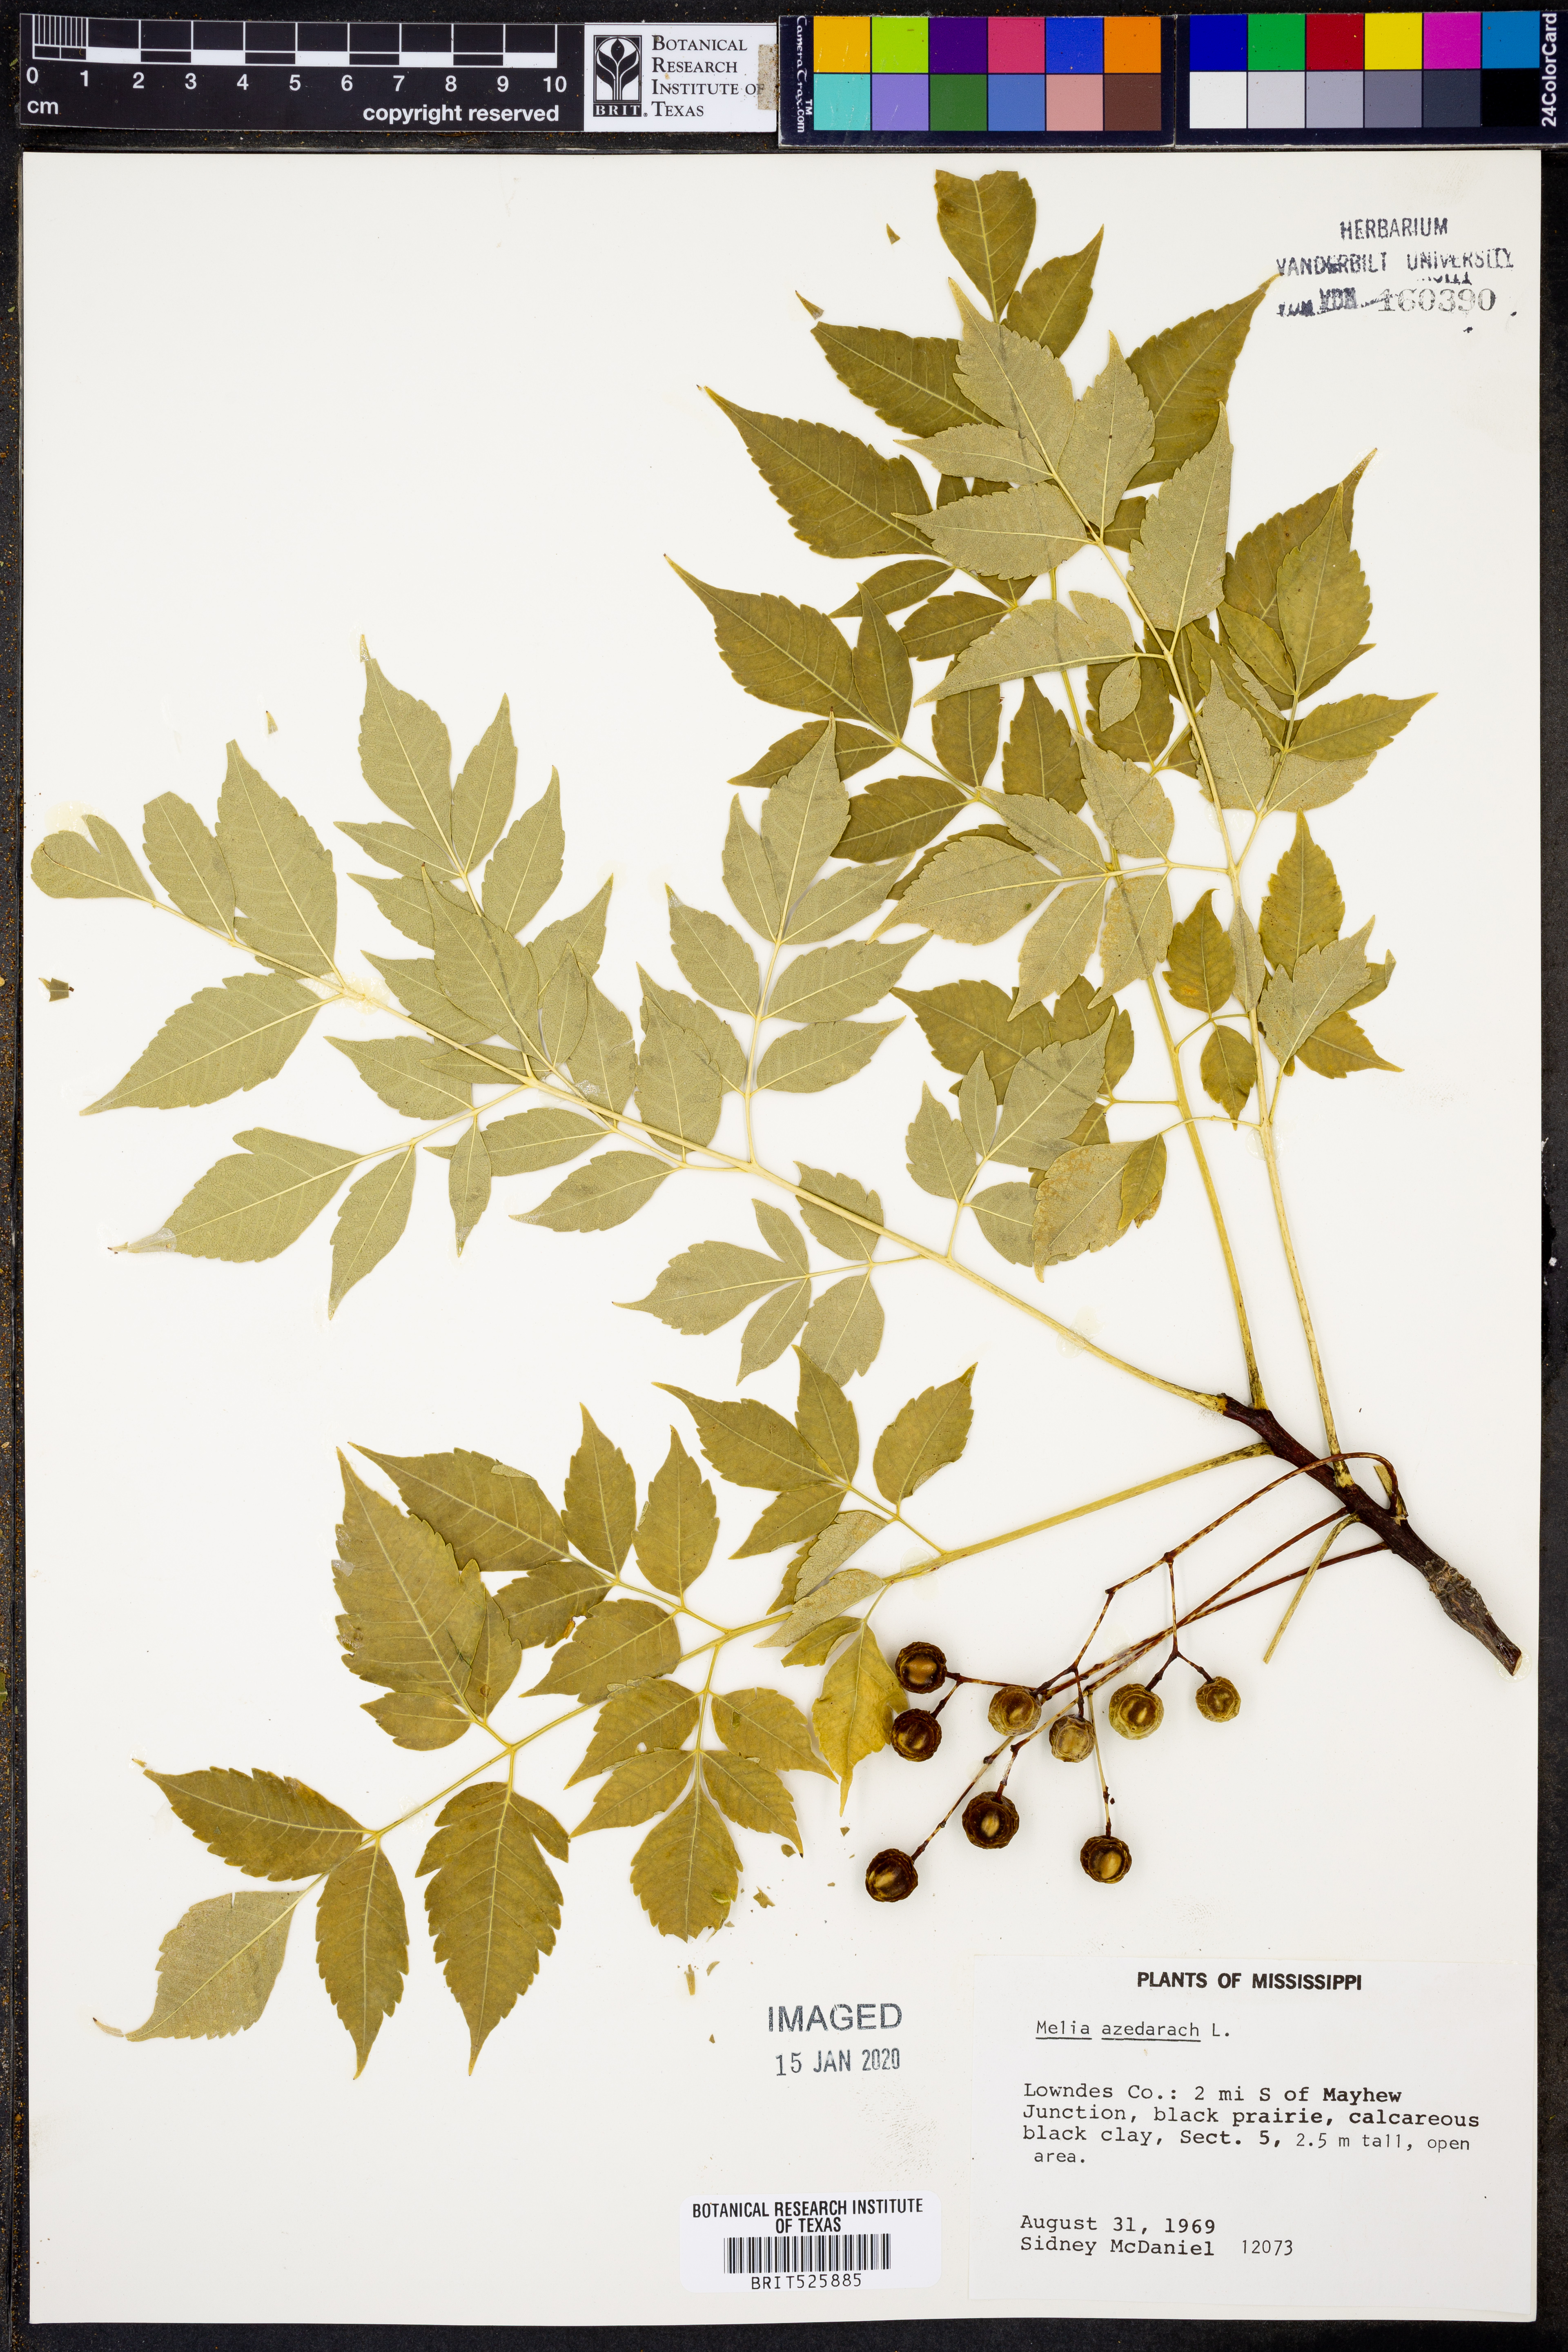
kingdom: Plantae
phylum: Tracheophyta
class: Magnoliopsida
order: Sapindales
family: Meliaceae
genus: Melia
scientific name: Melia azedarach
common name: Chinaberrytree
